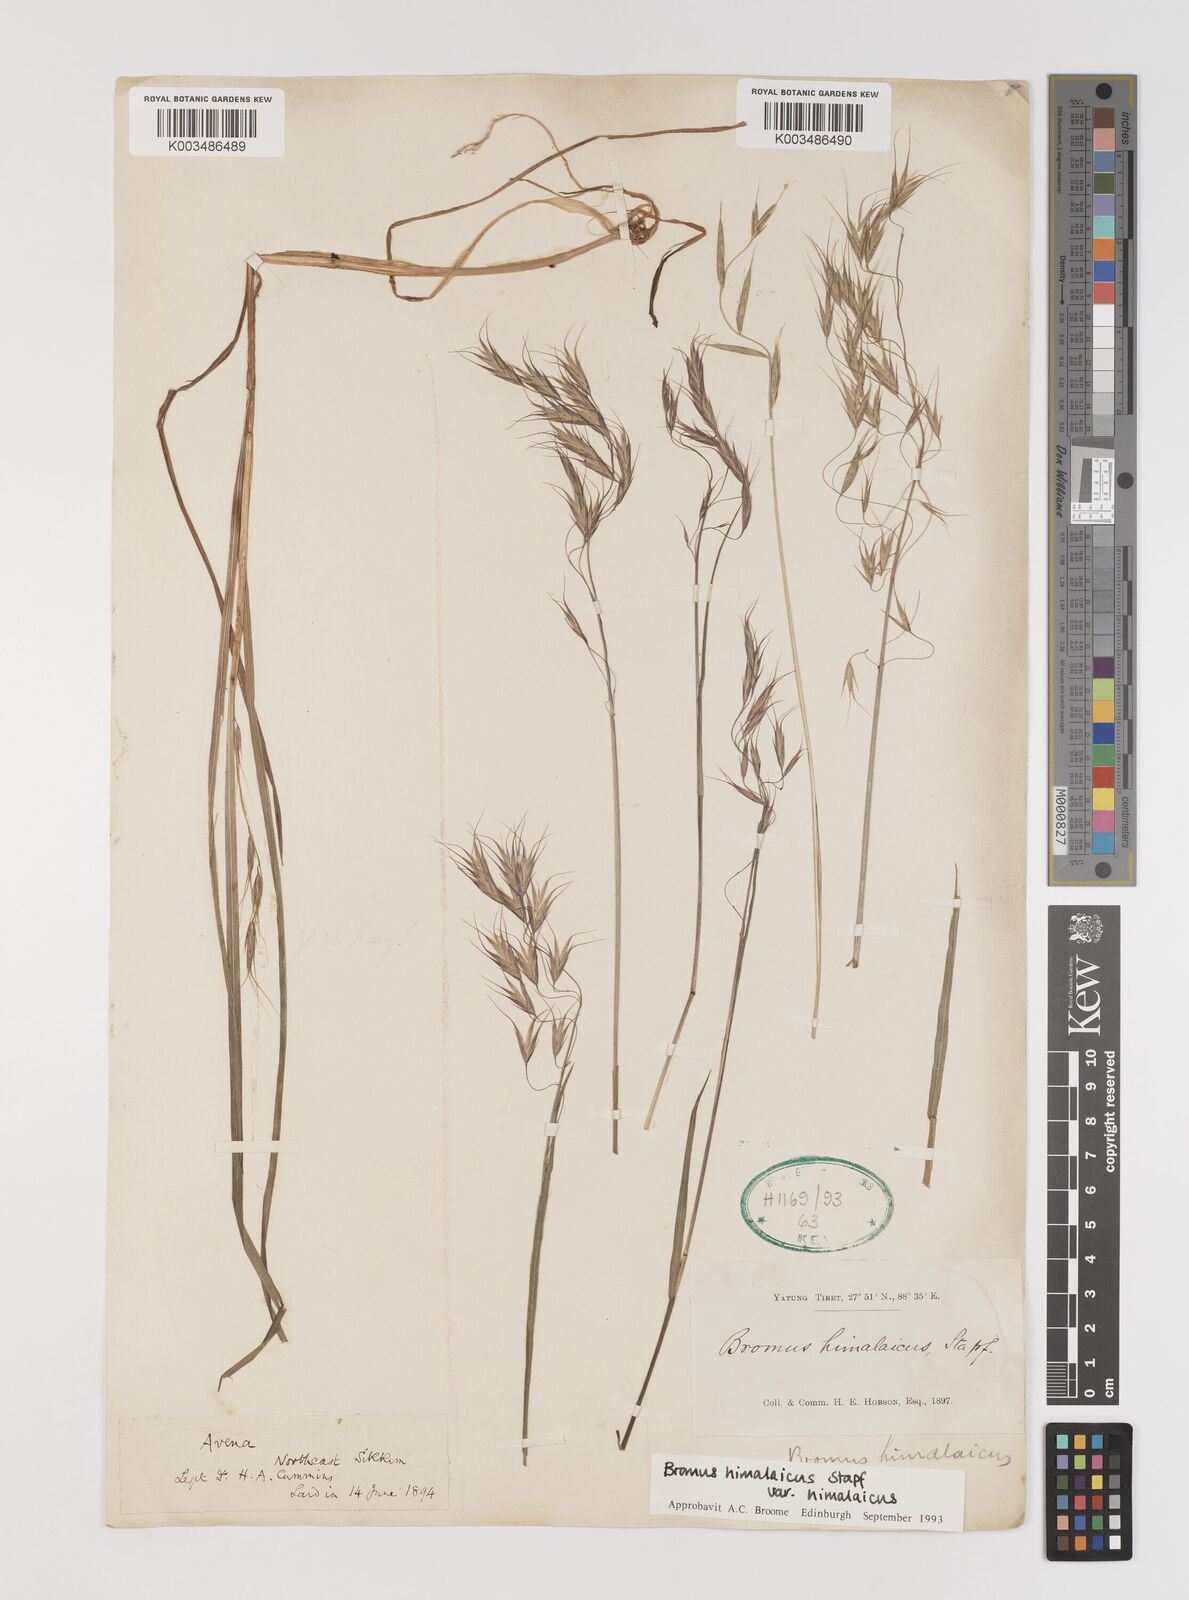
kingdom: Plantae
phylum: Tracheophyta
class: Liliopsida
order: Poales
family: Poaceae
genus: Bromus
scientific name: Bromus himalaicus
